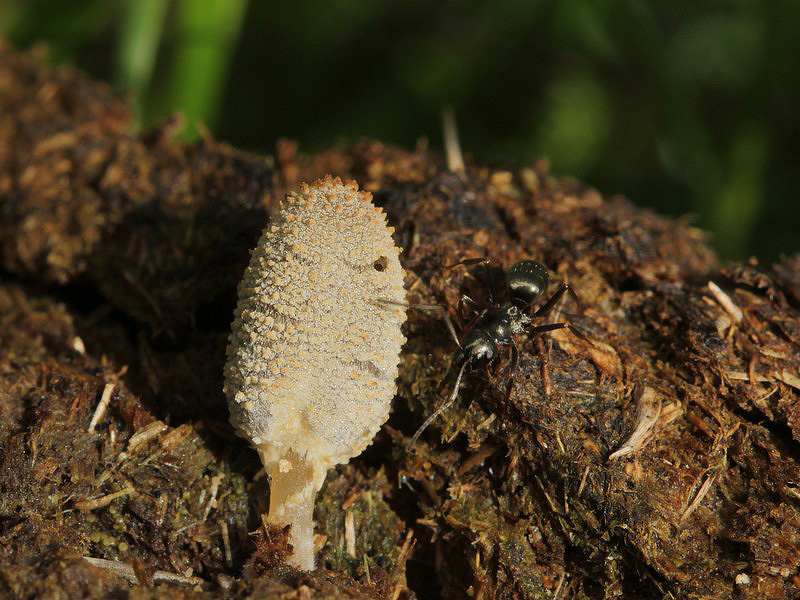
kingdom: Fungi
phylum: Basidiomycota
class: Agaricomycetes
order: Agaricales
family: Psathyrellaceae
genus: Narcissea
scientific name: Narcissea ephemeroides
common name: ring-blækhat
